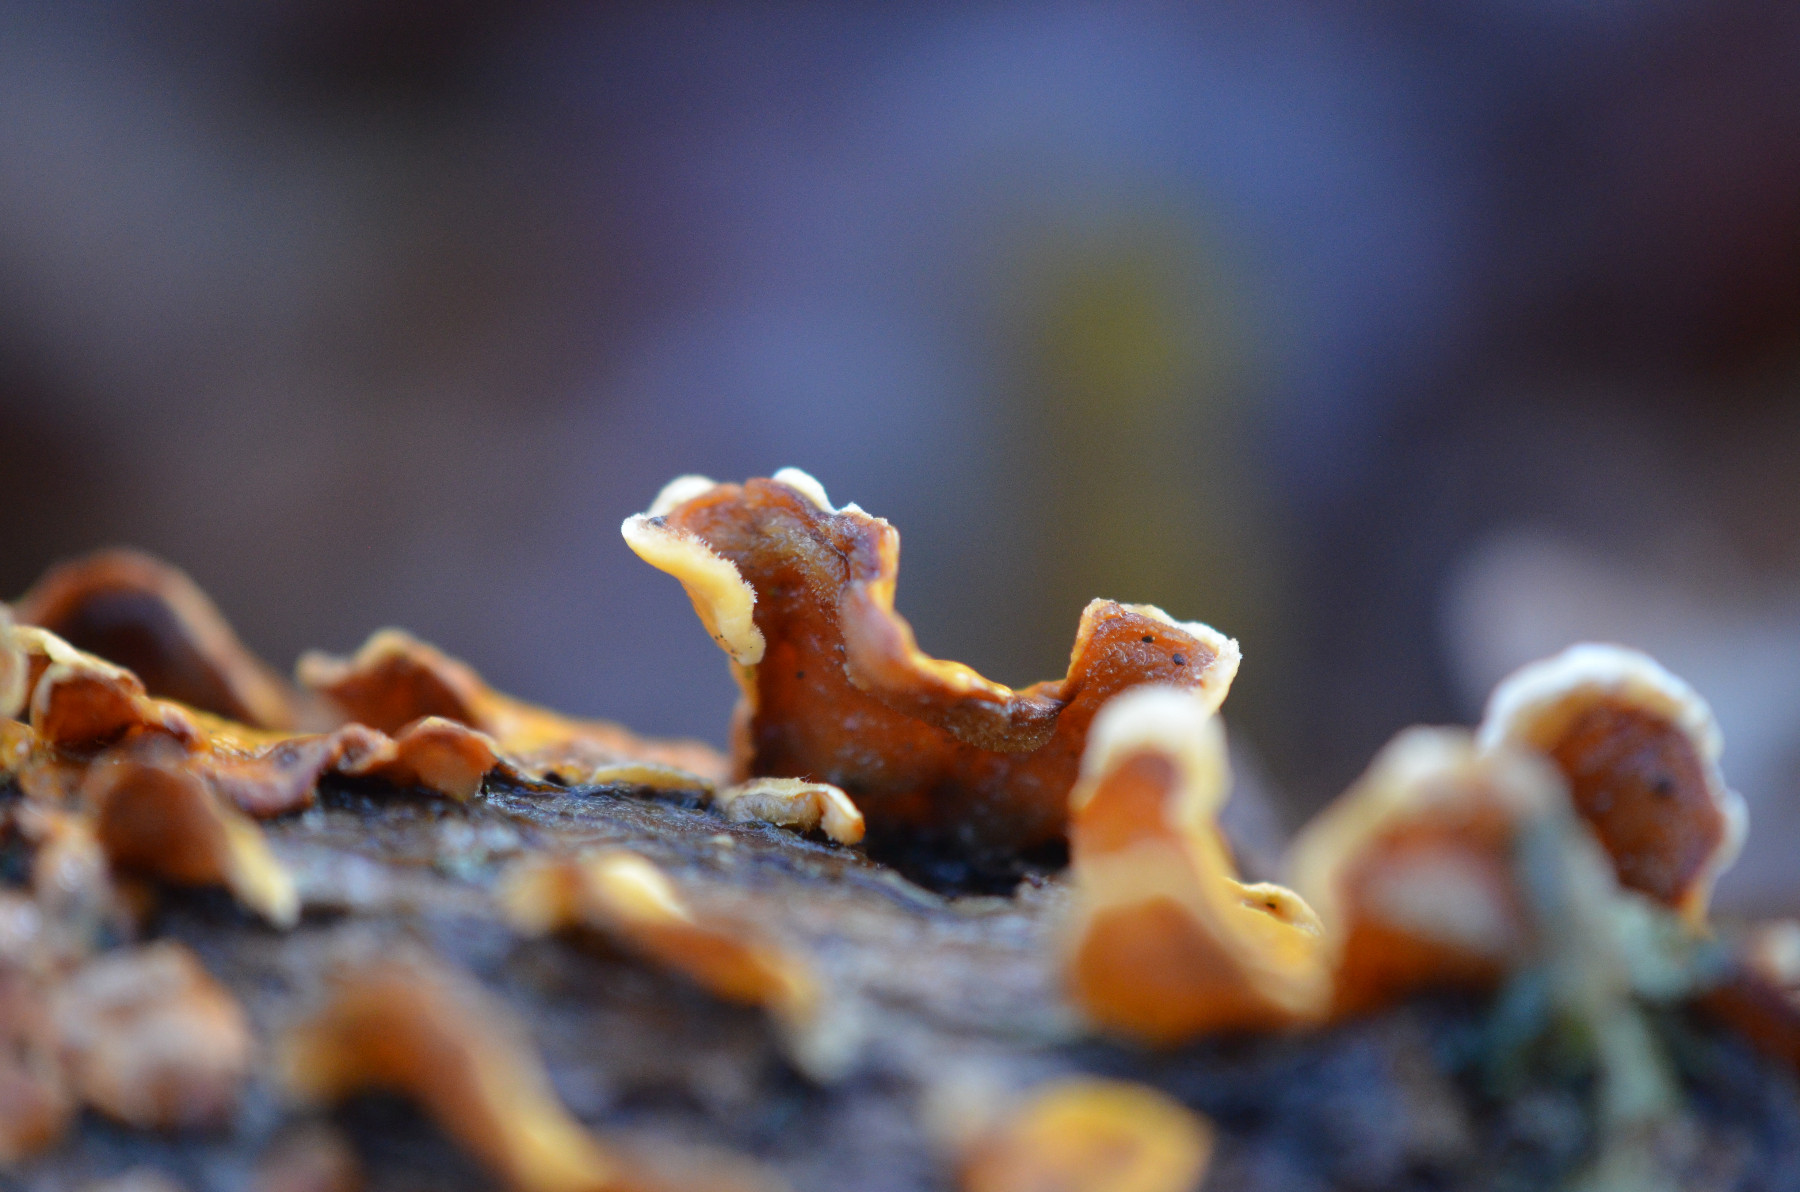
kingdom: Fungi
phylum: Basidiomycota
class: Agaricomycetes
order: Russulales
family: Stereaceae
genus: Stereum
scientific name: Stereum hirsutum
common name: håret lædersvamp
